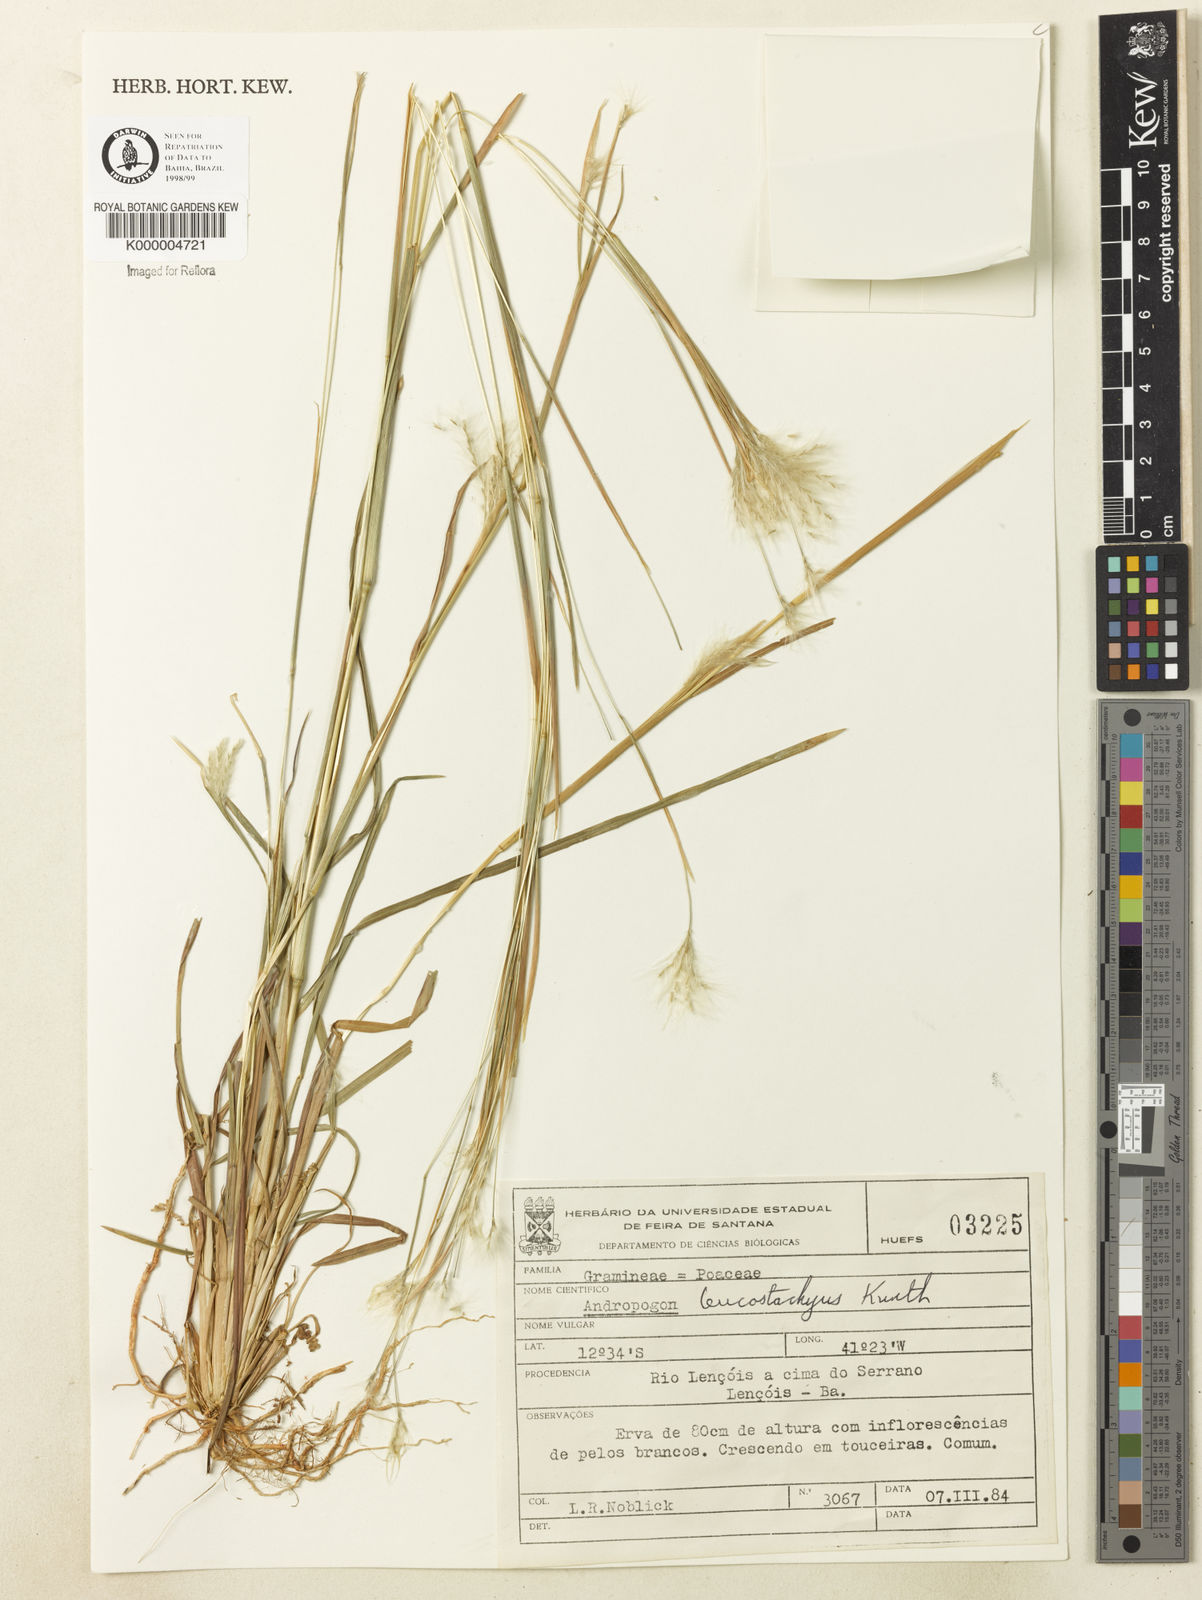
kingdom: Plantae
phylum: Tracheophyta
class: Liliopsida
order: Poales
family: Poaceae
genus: Andropogon
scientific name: Andropogon leucostachyus
